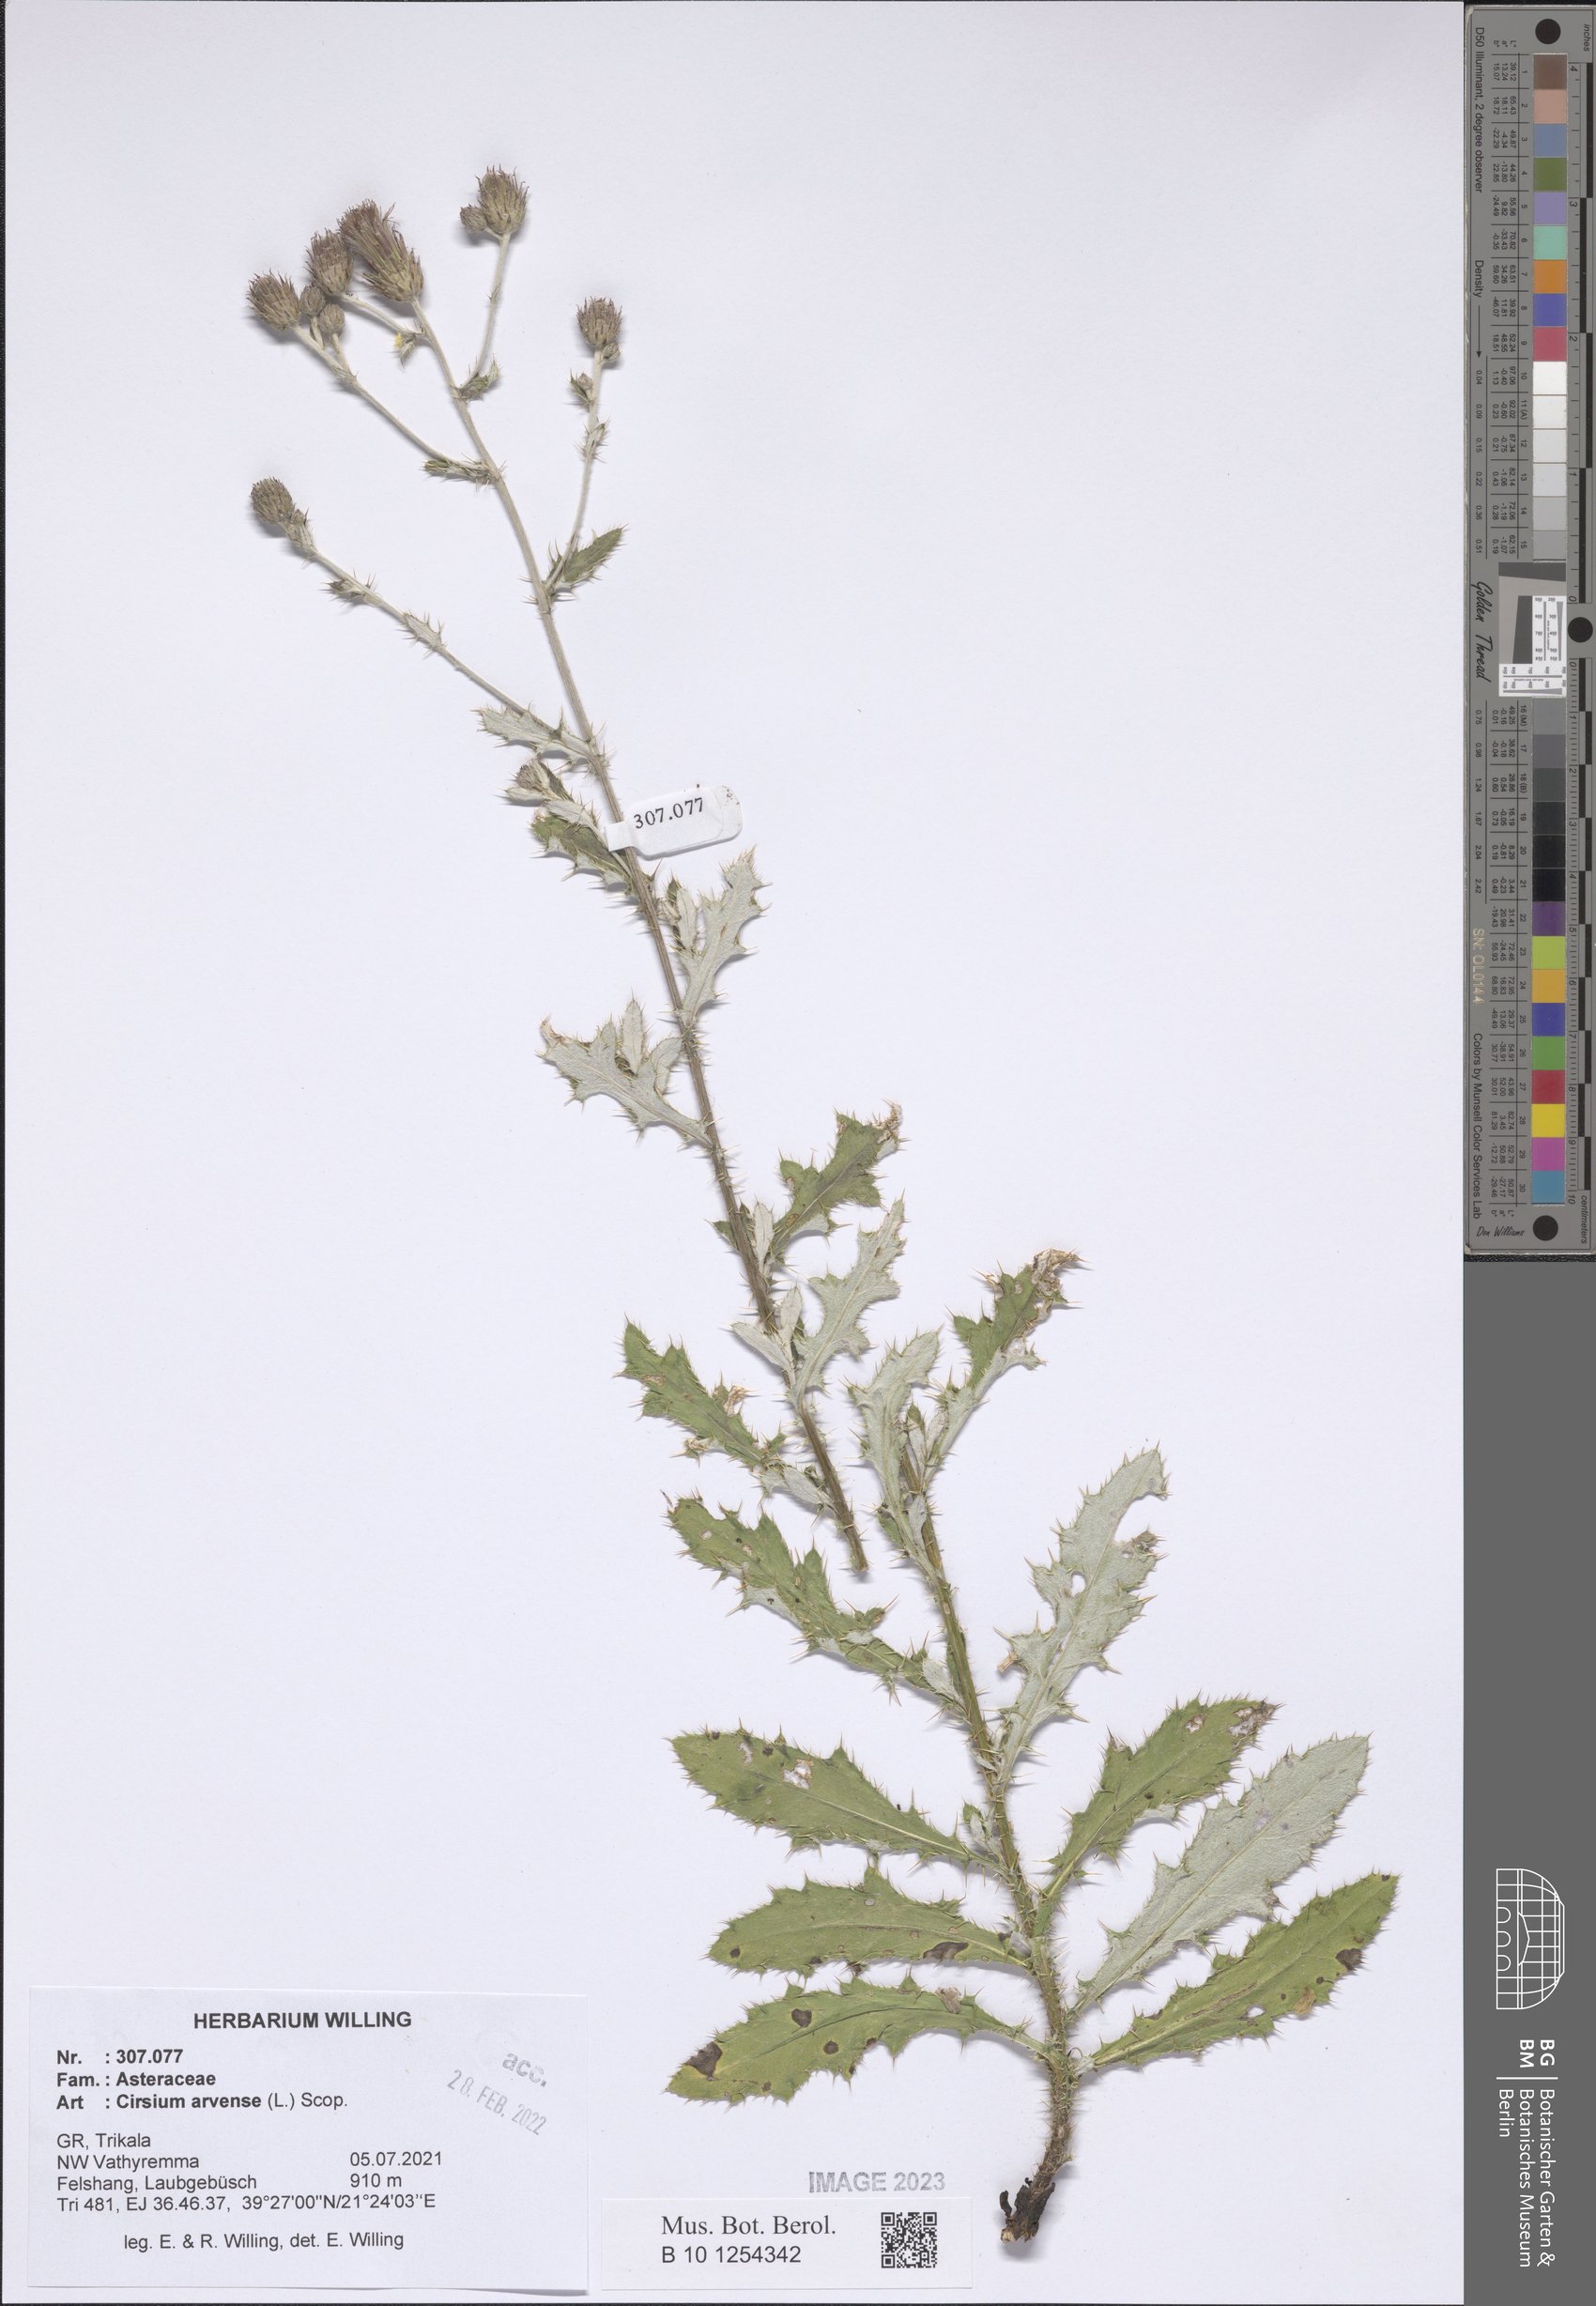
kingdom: Plantae
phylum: Tracheophyta
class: Magnoliopsida
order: Asterales
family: Asteraceae
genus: Cirsium
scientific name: Cirsium arvense
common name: Creeping thistle
